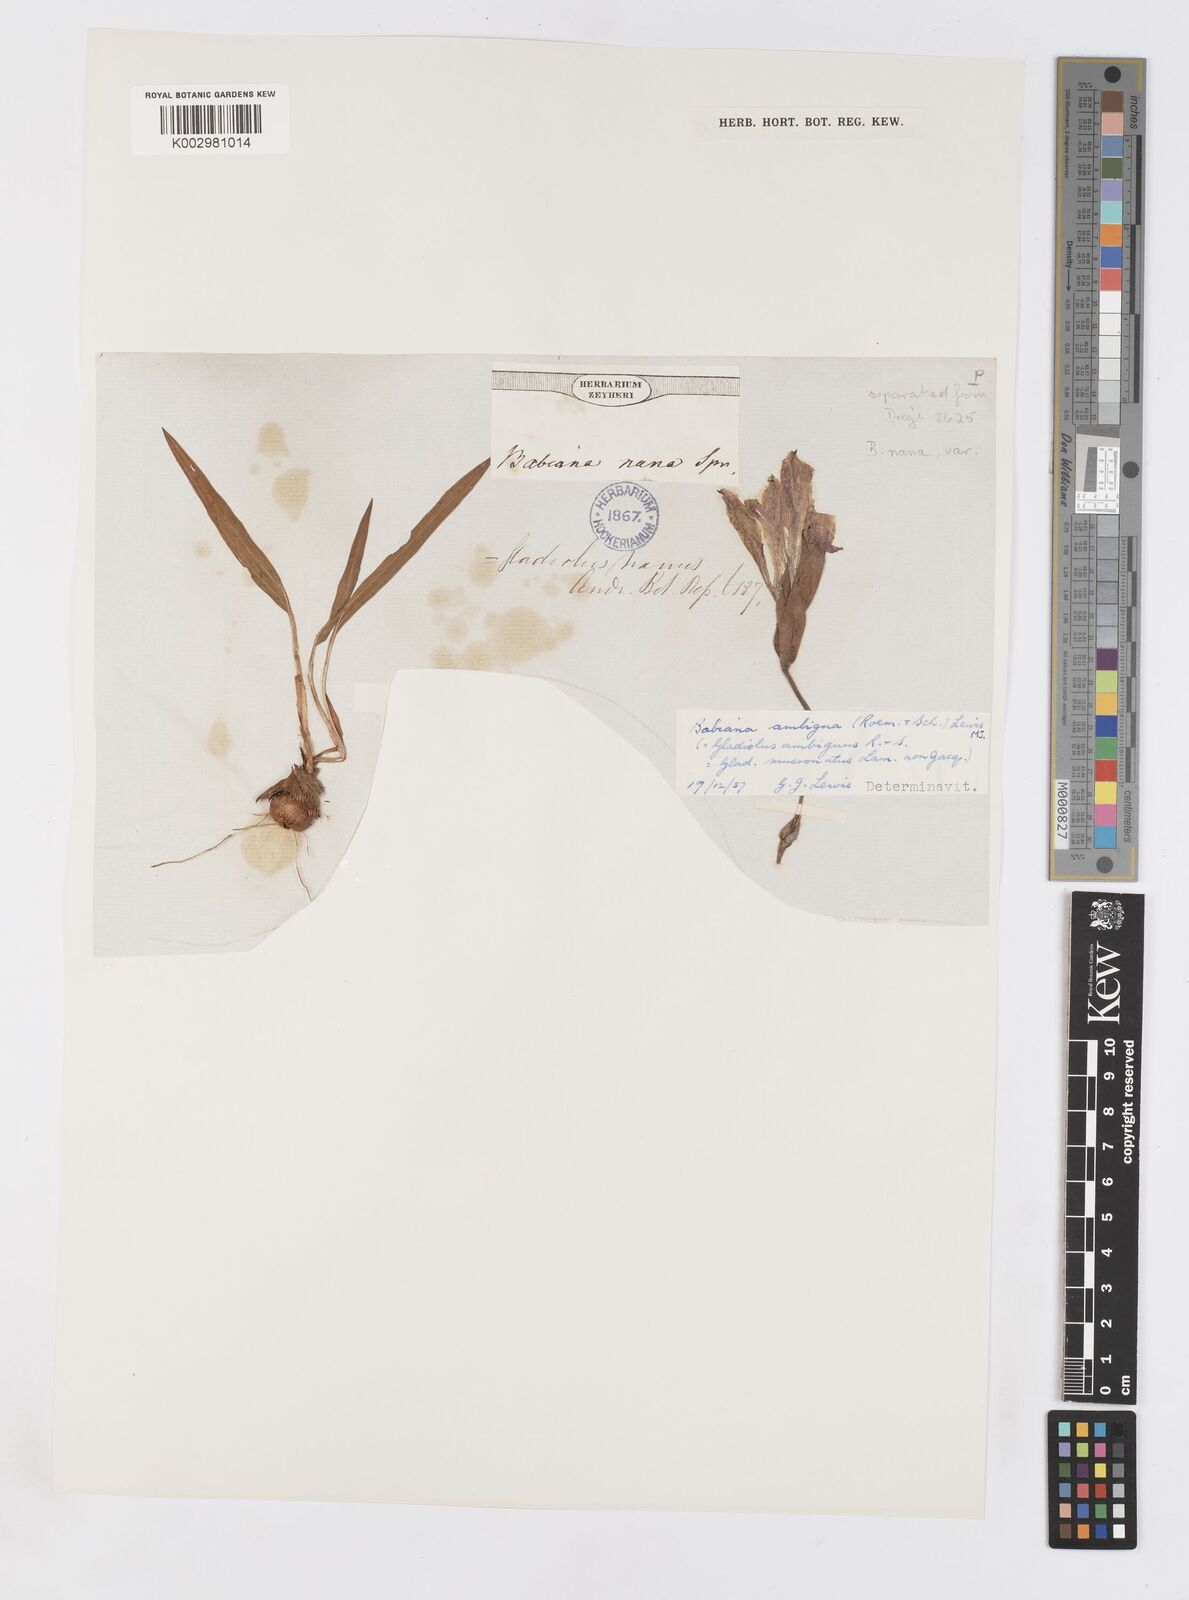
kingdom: Plantae
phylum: Tracheophyta
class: Liliopsida
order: Asparagales
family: Iridaceae
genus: Babiana
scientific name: Babiana ambigua
